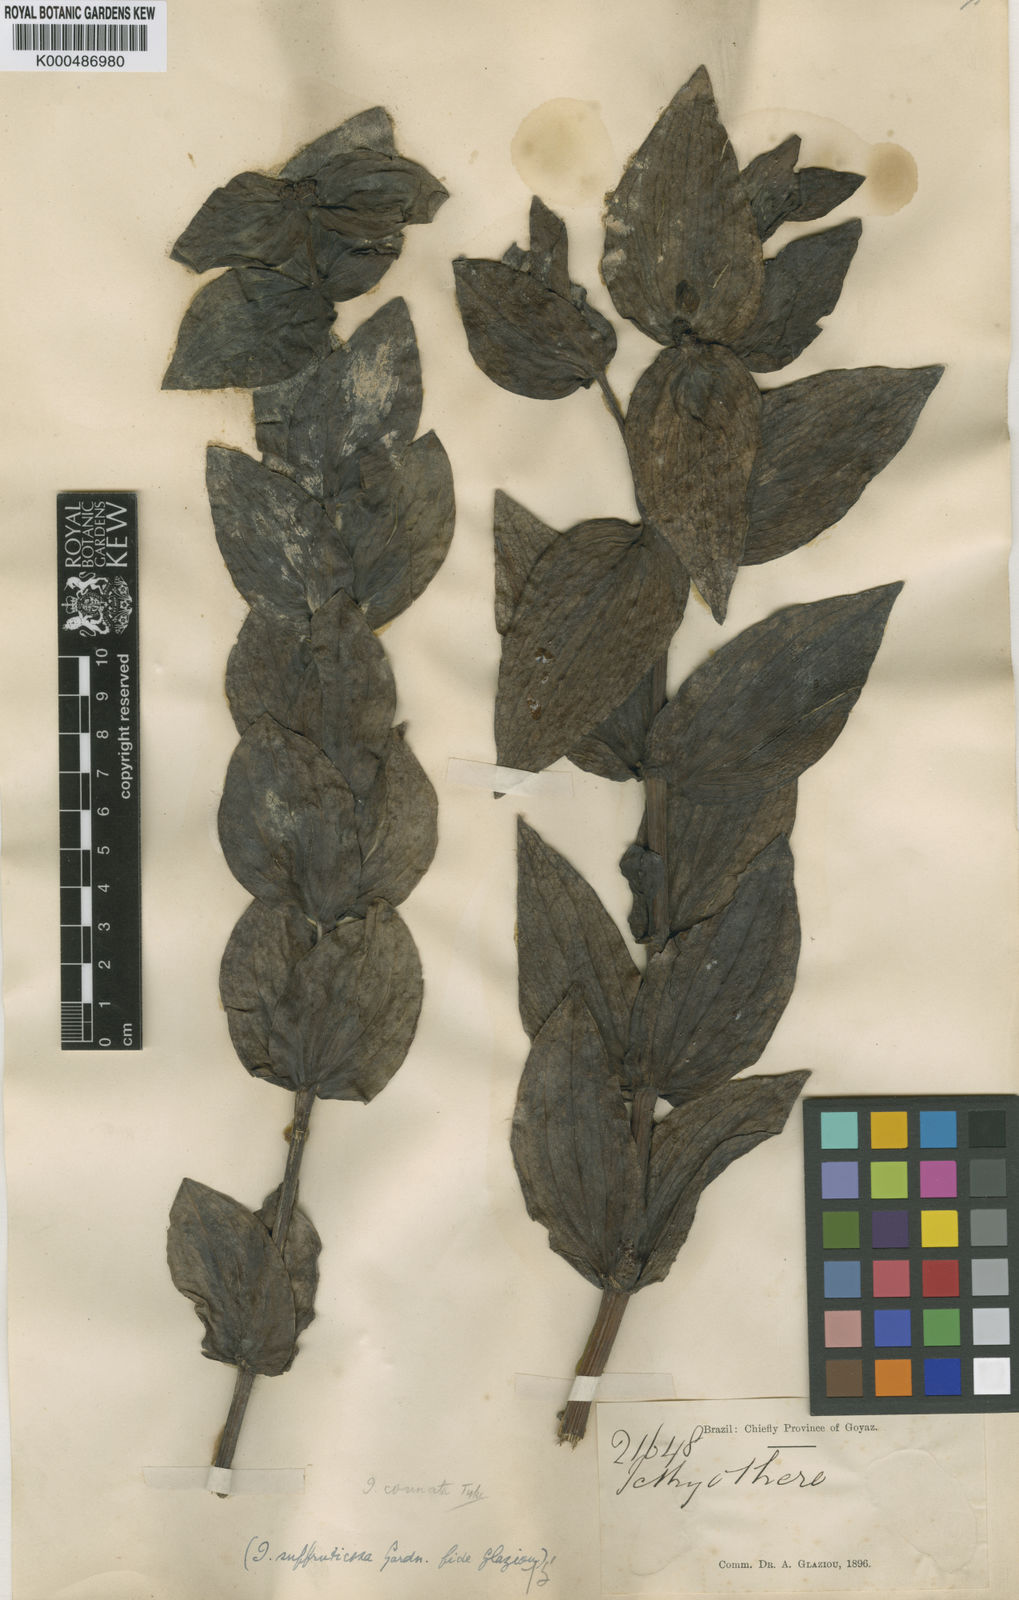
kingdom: Plantae
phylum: Tracheophyta
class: Magnoliopsida
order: Asterales
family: Asteraceae
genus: Ichthyothere
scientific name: Ichthyothere connata
